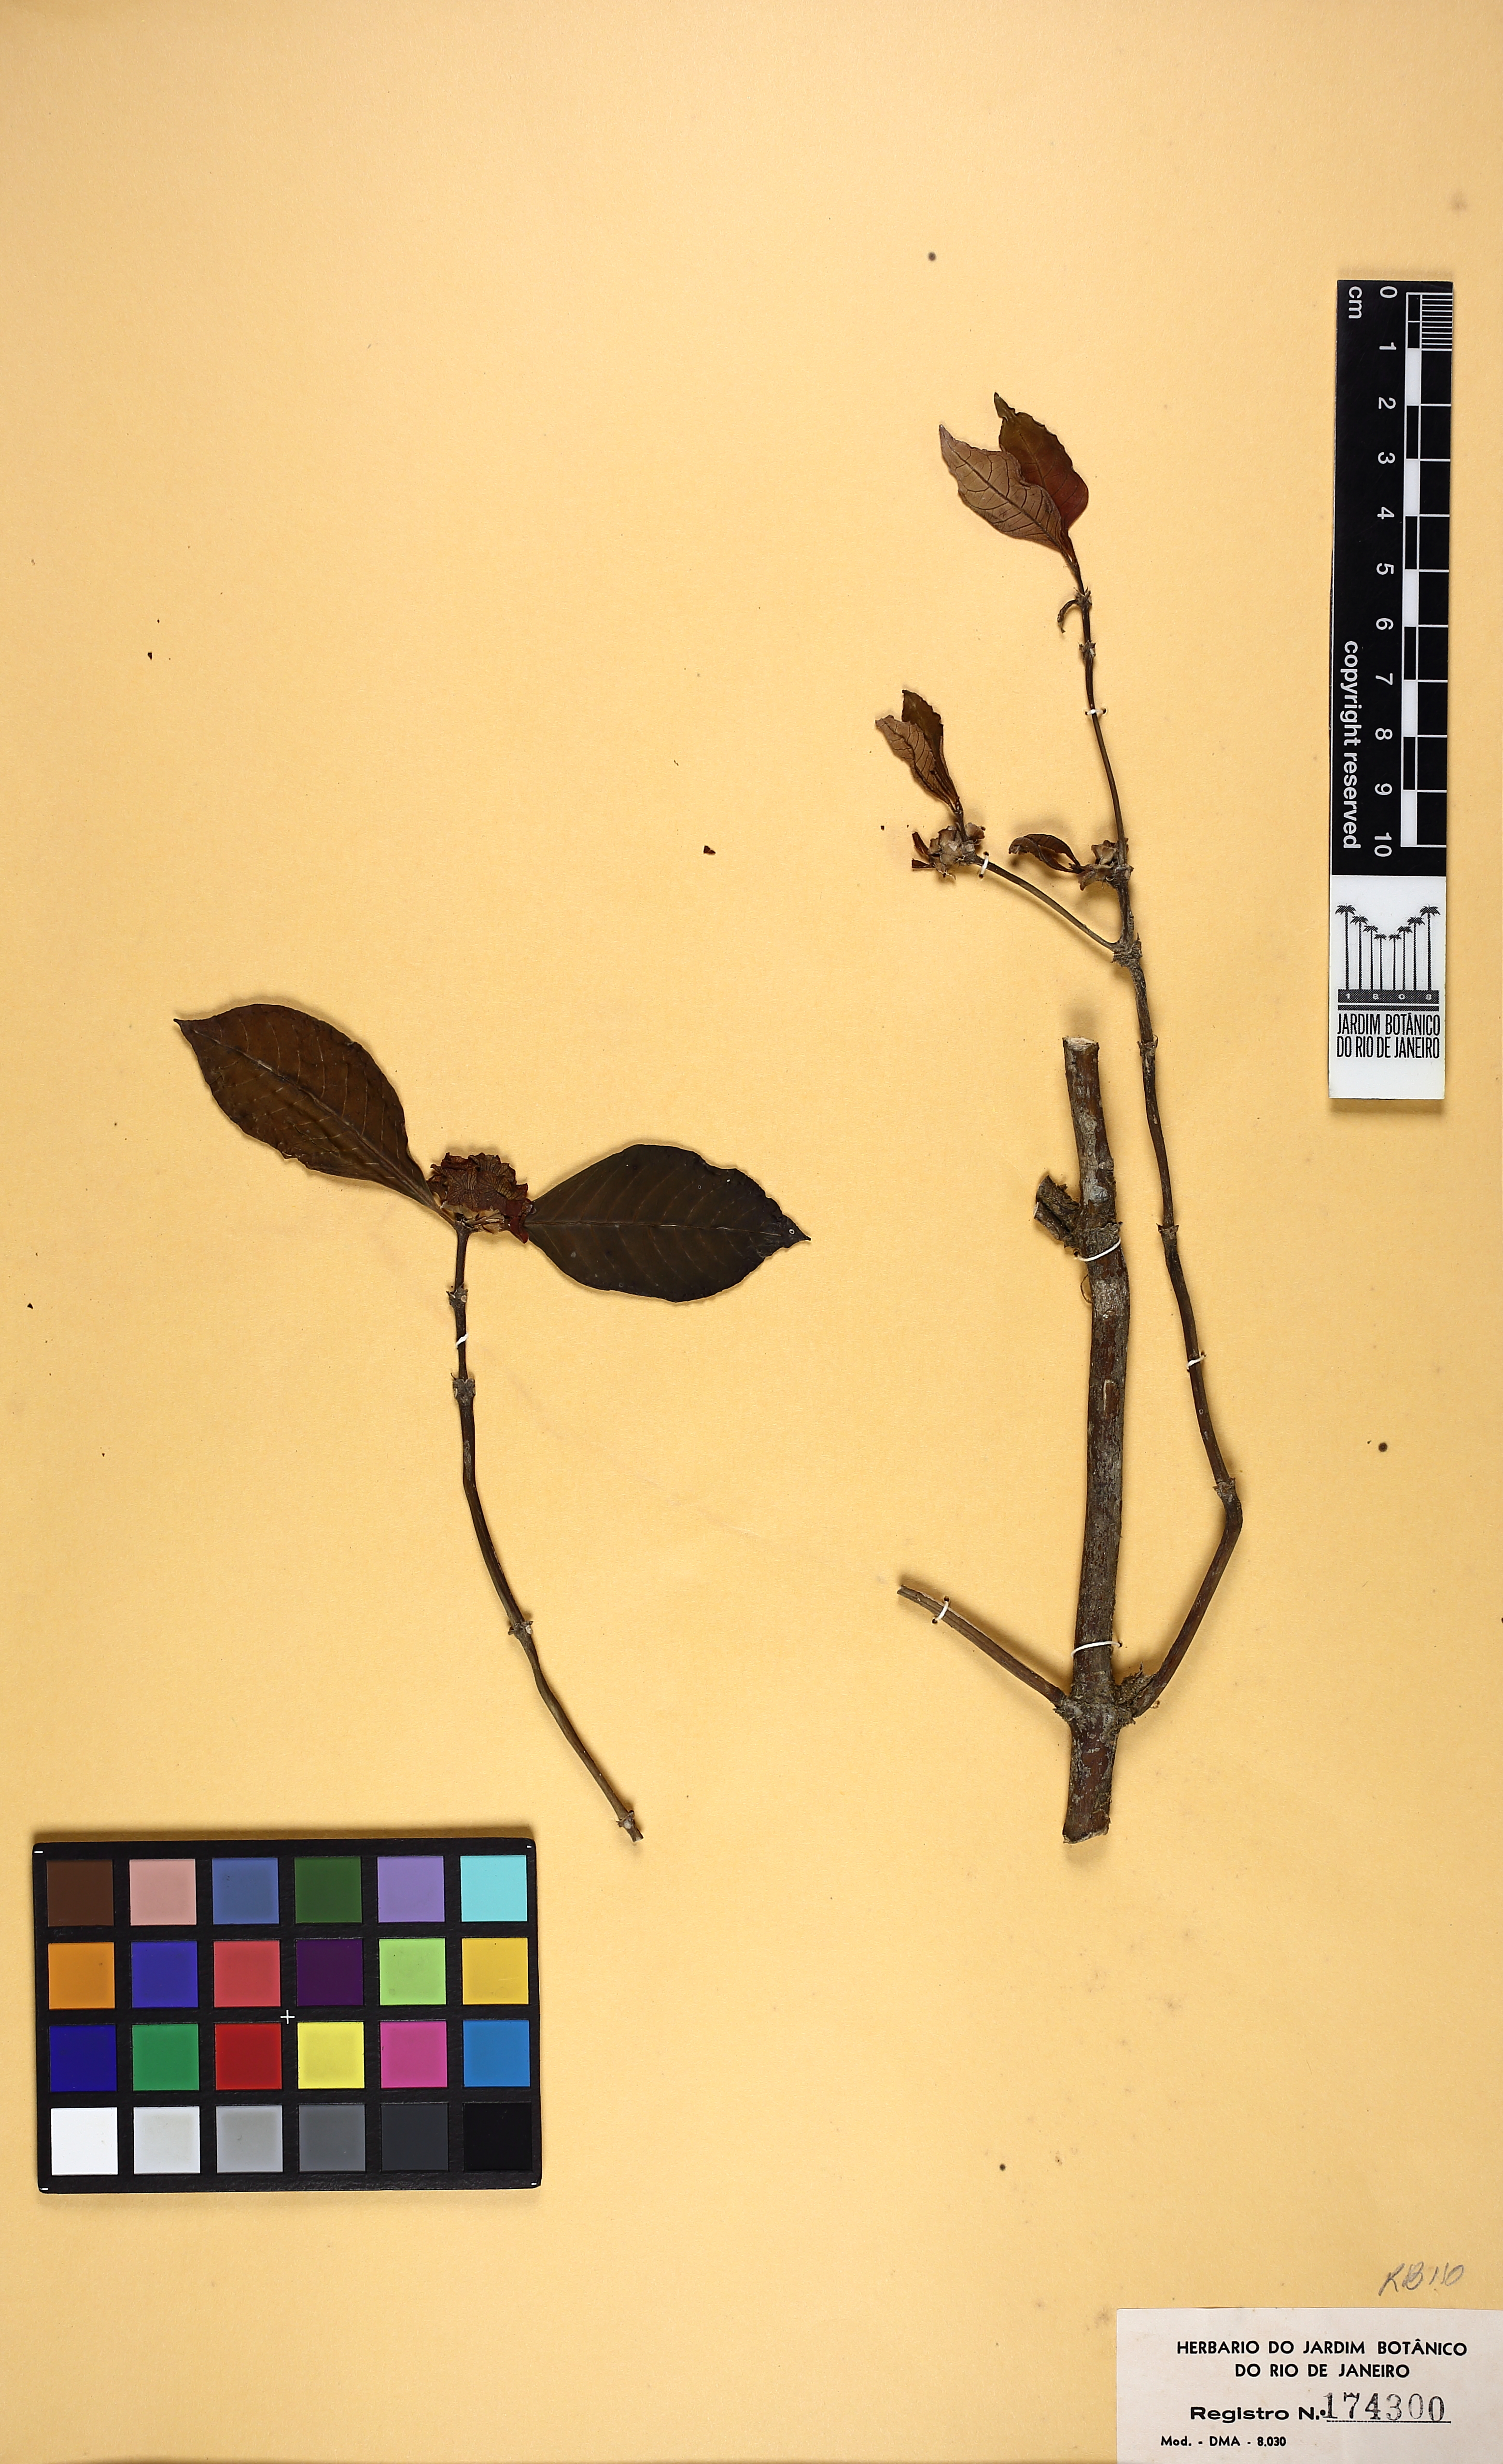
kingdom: Plantae
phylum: Tracheophyta
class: Magnoliopsida
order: Gentianales
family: Rubiaceae
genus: Psychotria
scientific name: Psychotria nuda
